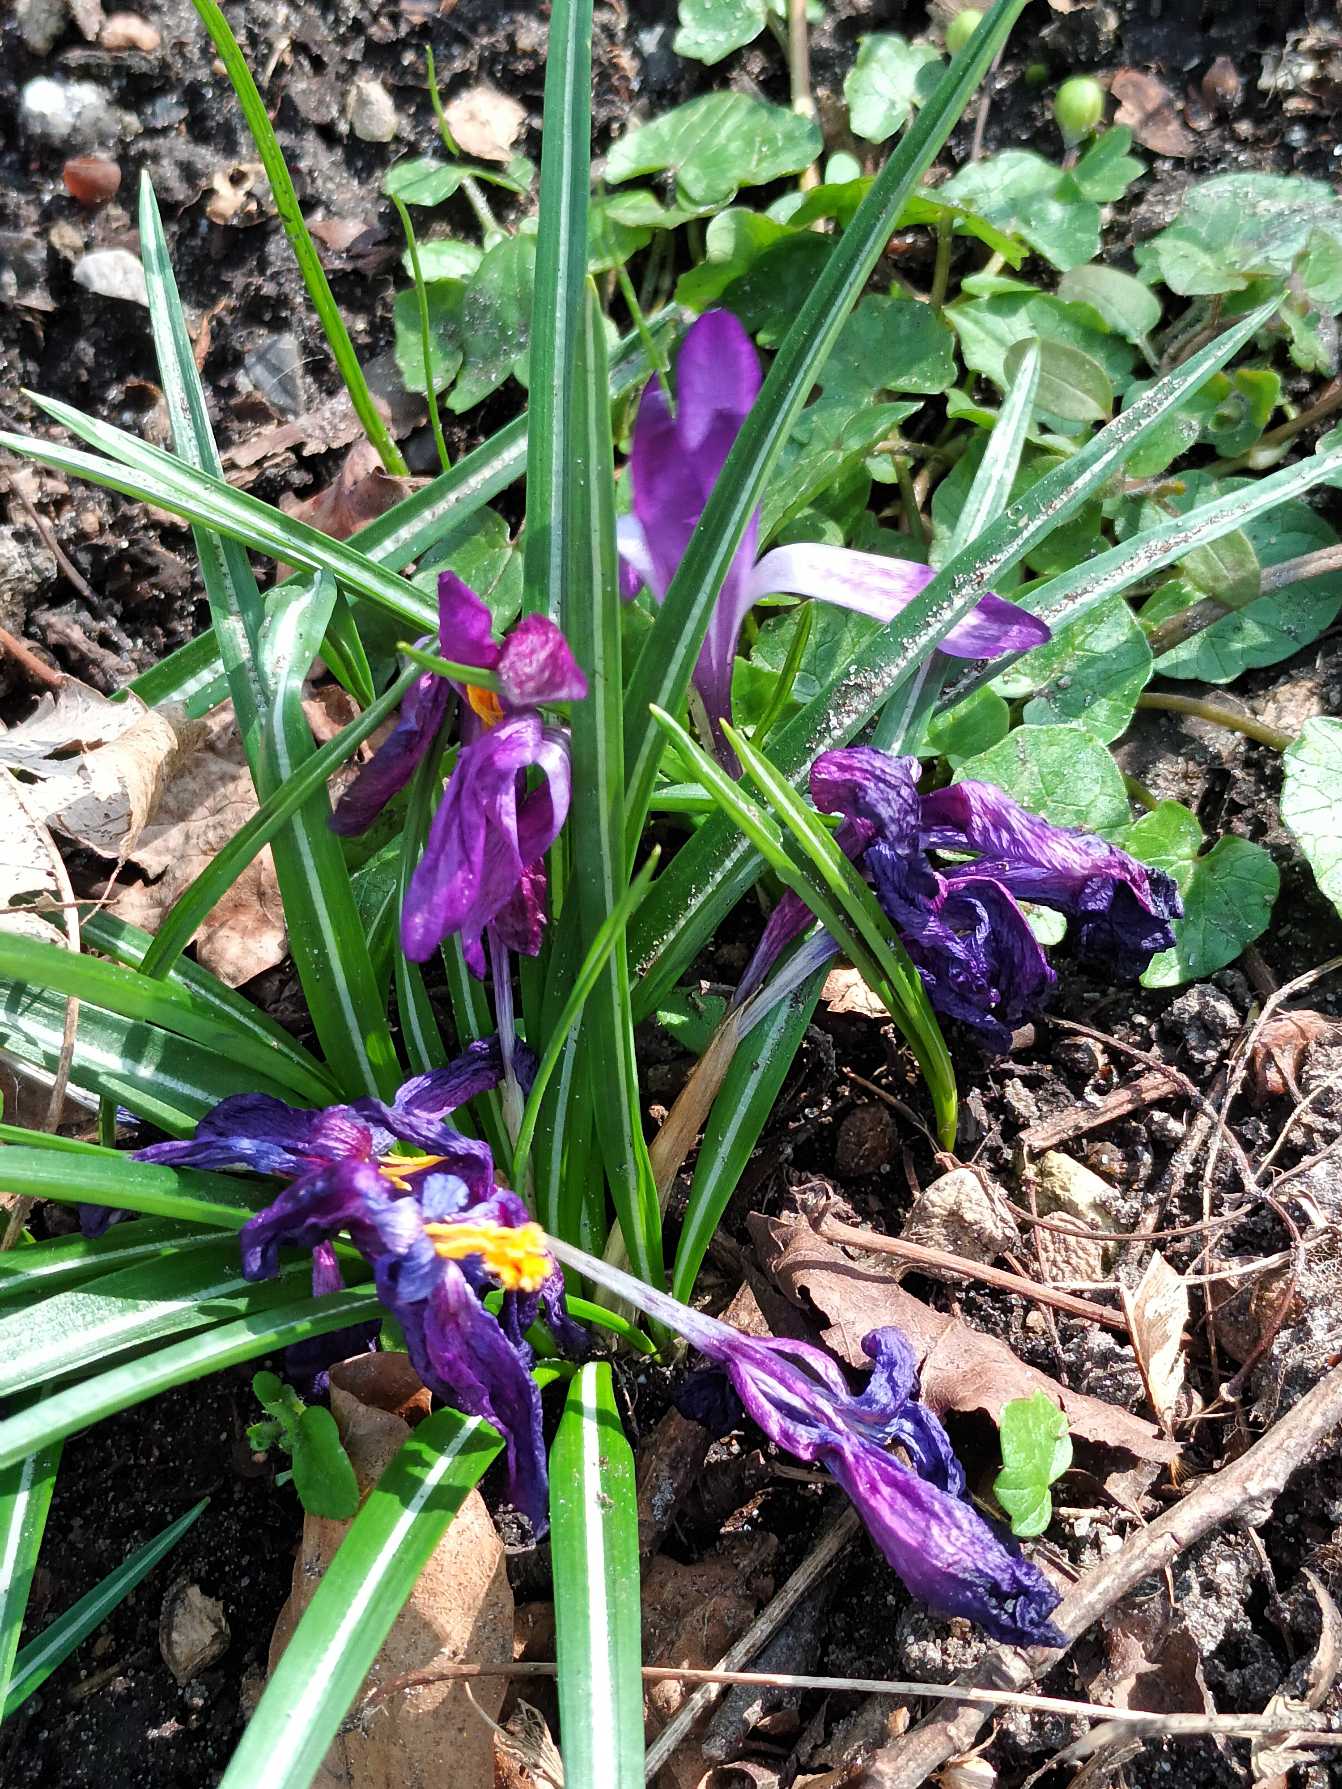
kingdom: Plantae
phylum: Tracheophyta
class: Liliopsida
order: Asparagales
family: Iridaceae
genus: Crocus
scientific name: Crocus vernus
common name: Vår-krokus
